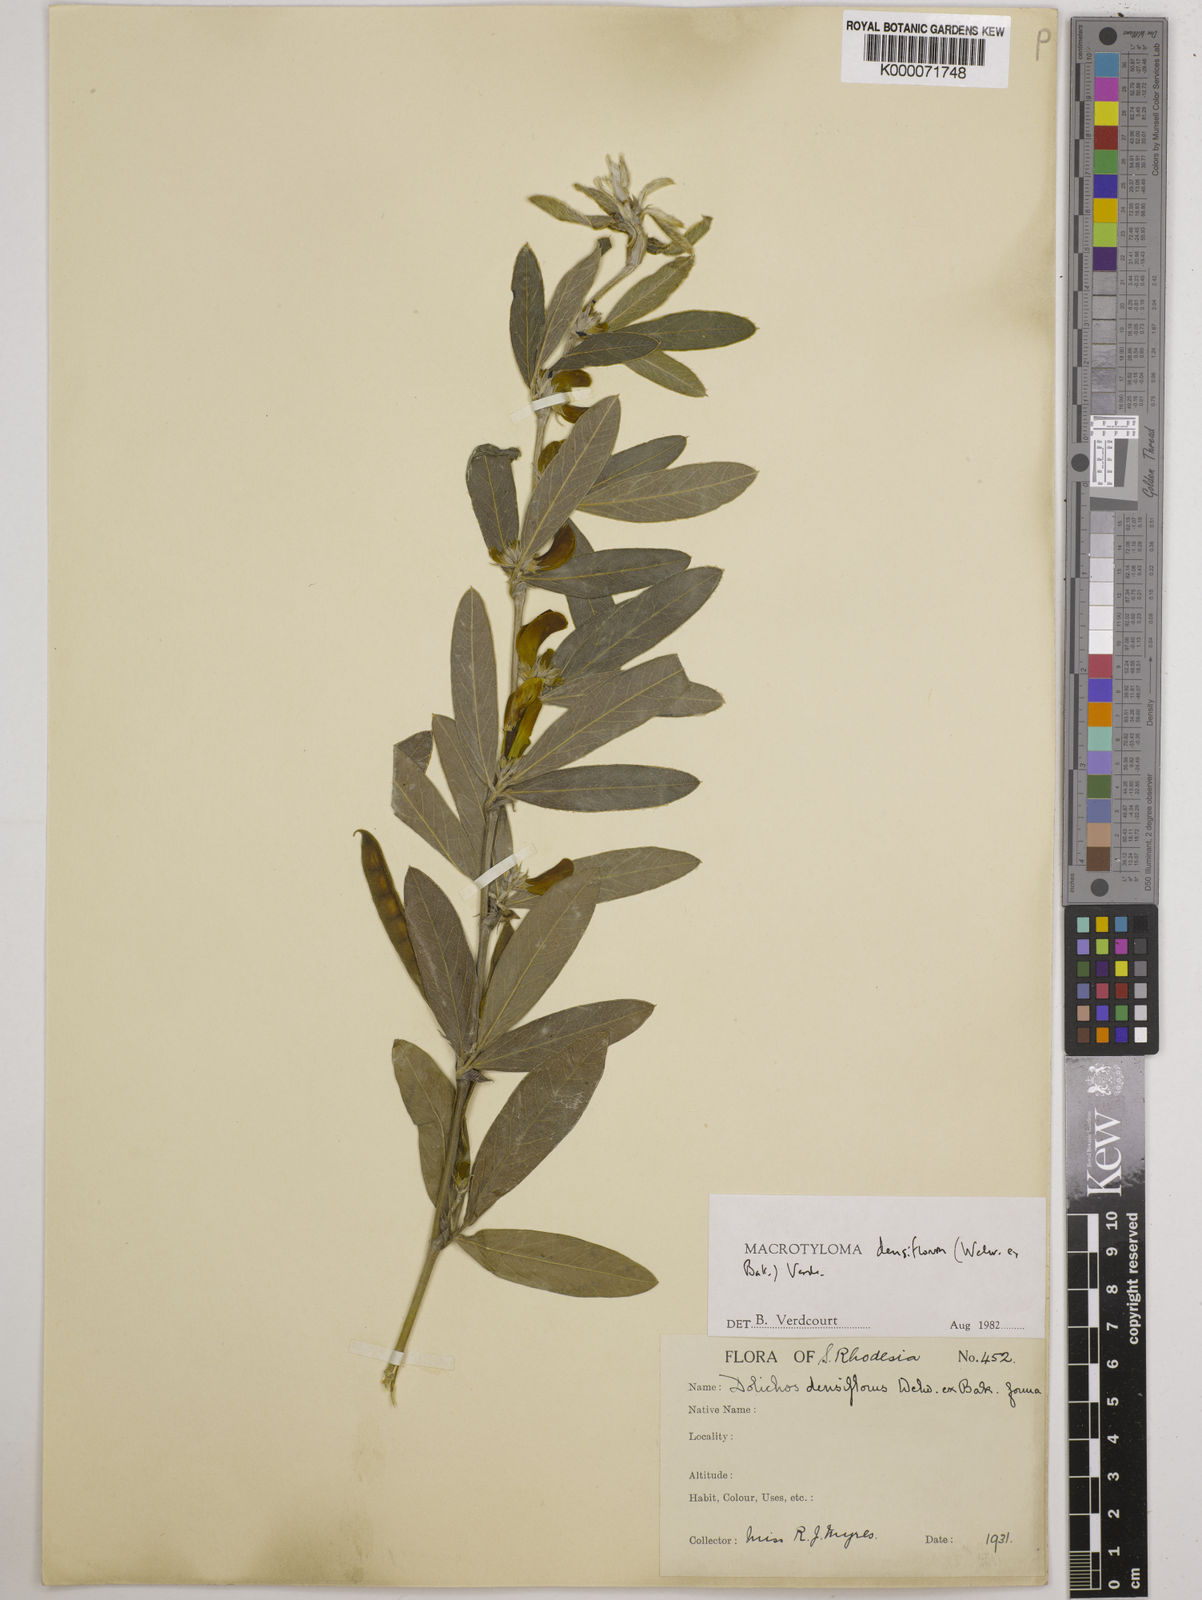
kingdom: Plantae
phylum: Tracheophyta
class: Magnoliopsida
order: Fabales
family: Fabaceae
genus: Macrotyloma
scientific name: Macrotyloma densiflorum
